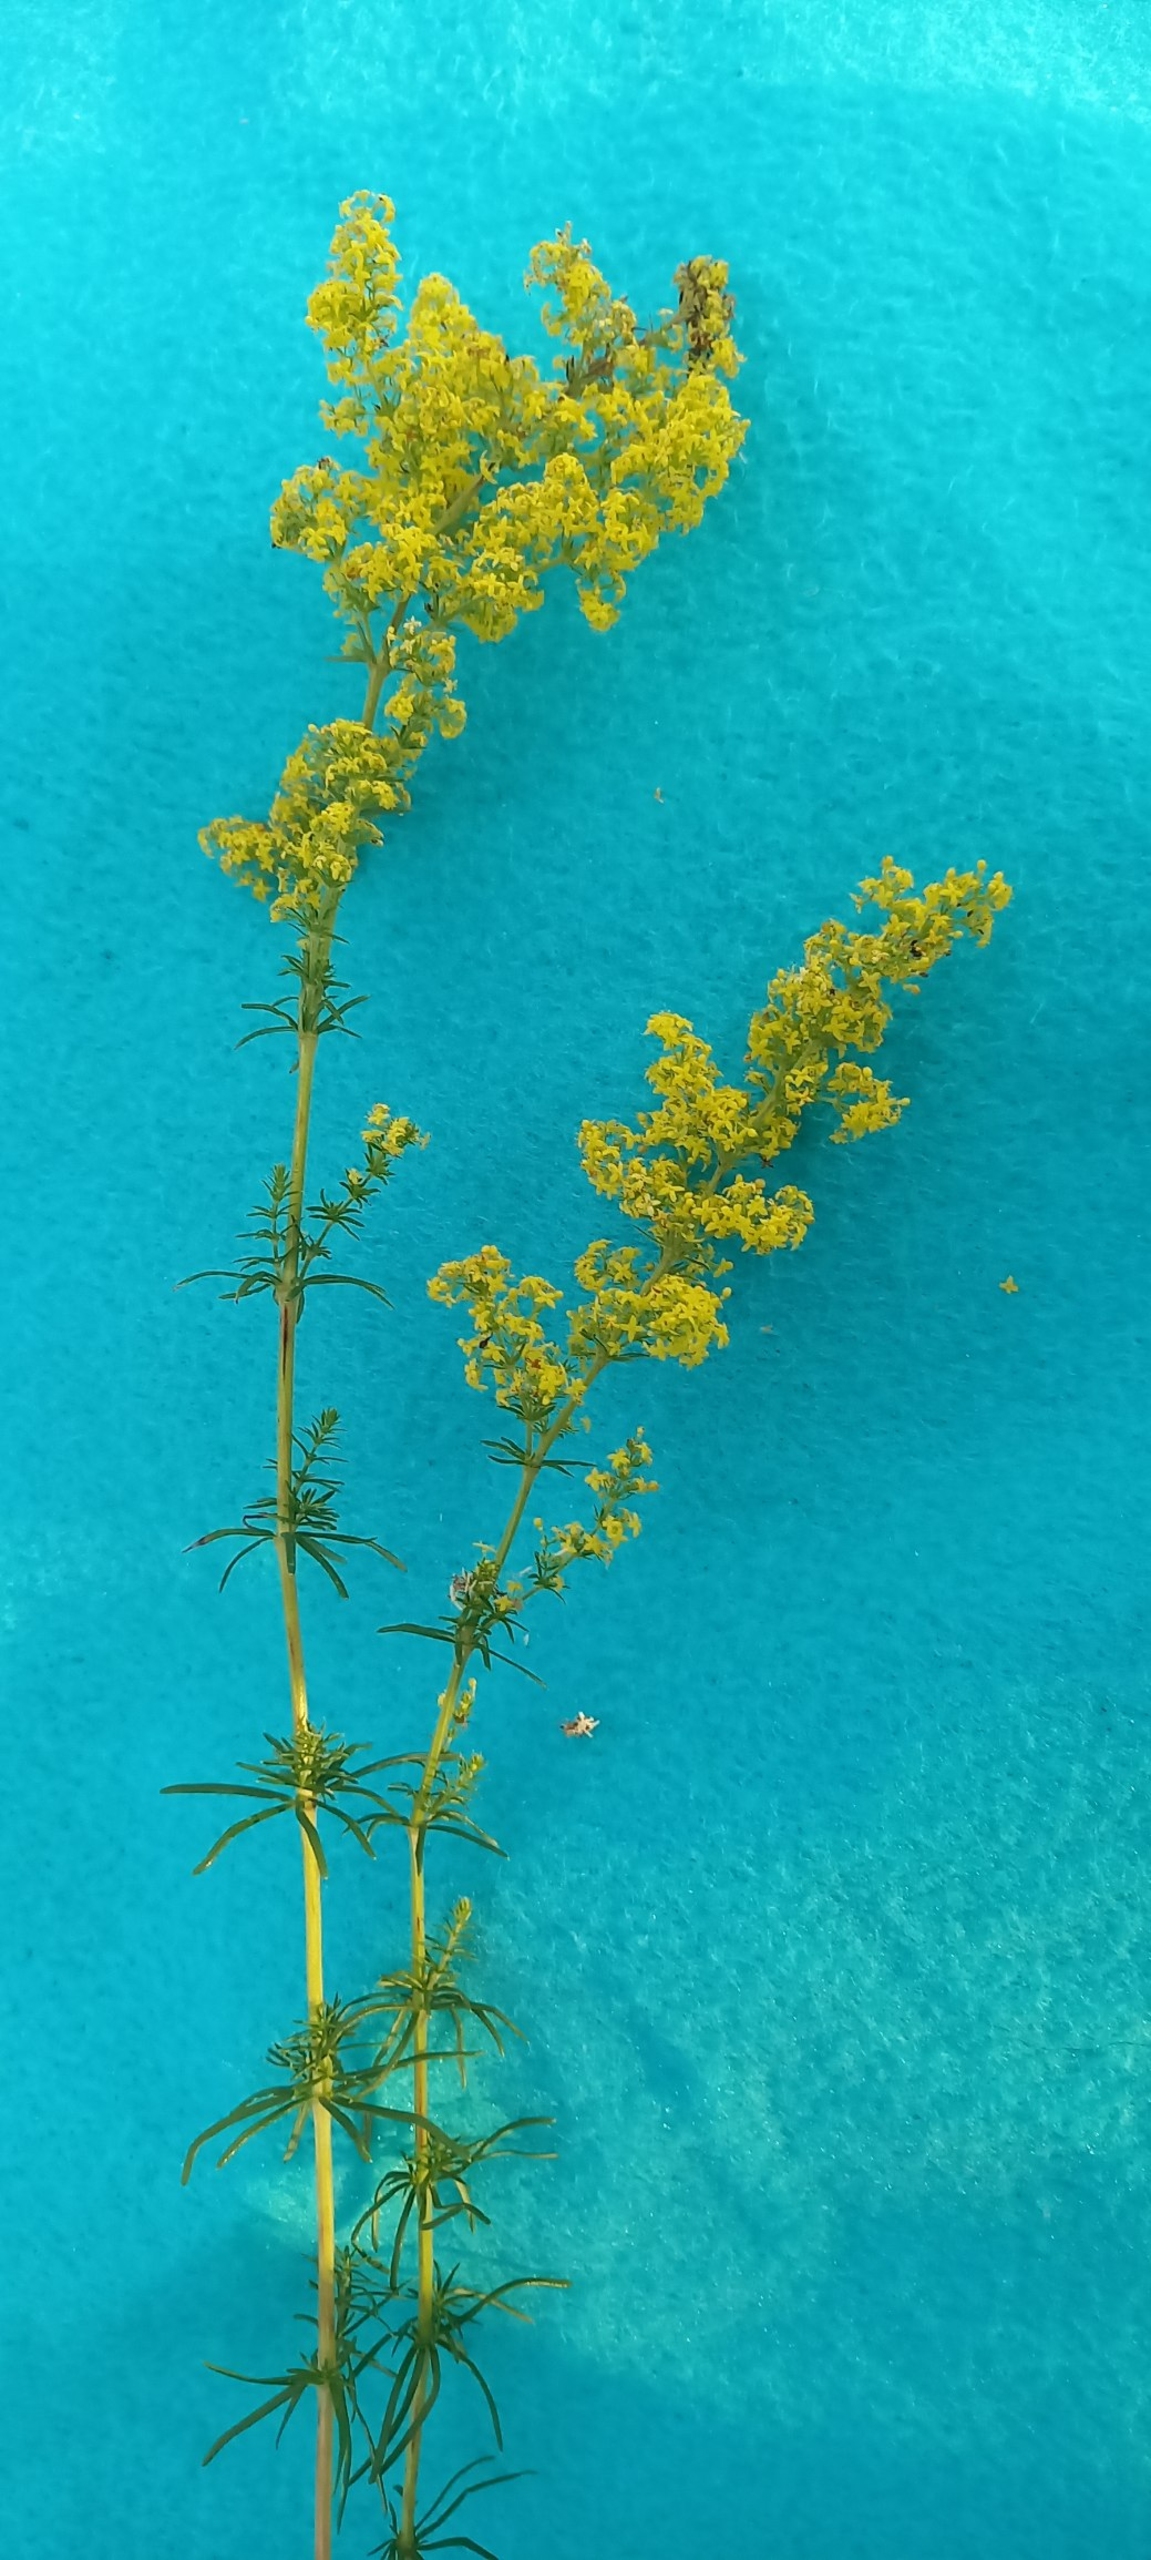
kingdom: Plantae
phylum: Tracheophyta
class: Magnoliopsida
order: Gentianales
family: Rubiaceae
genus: Galium
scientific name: Galium verum
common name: Gul snerre
